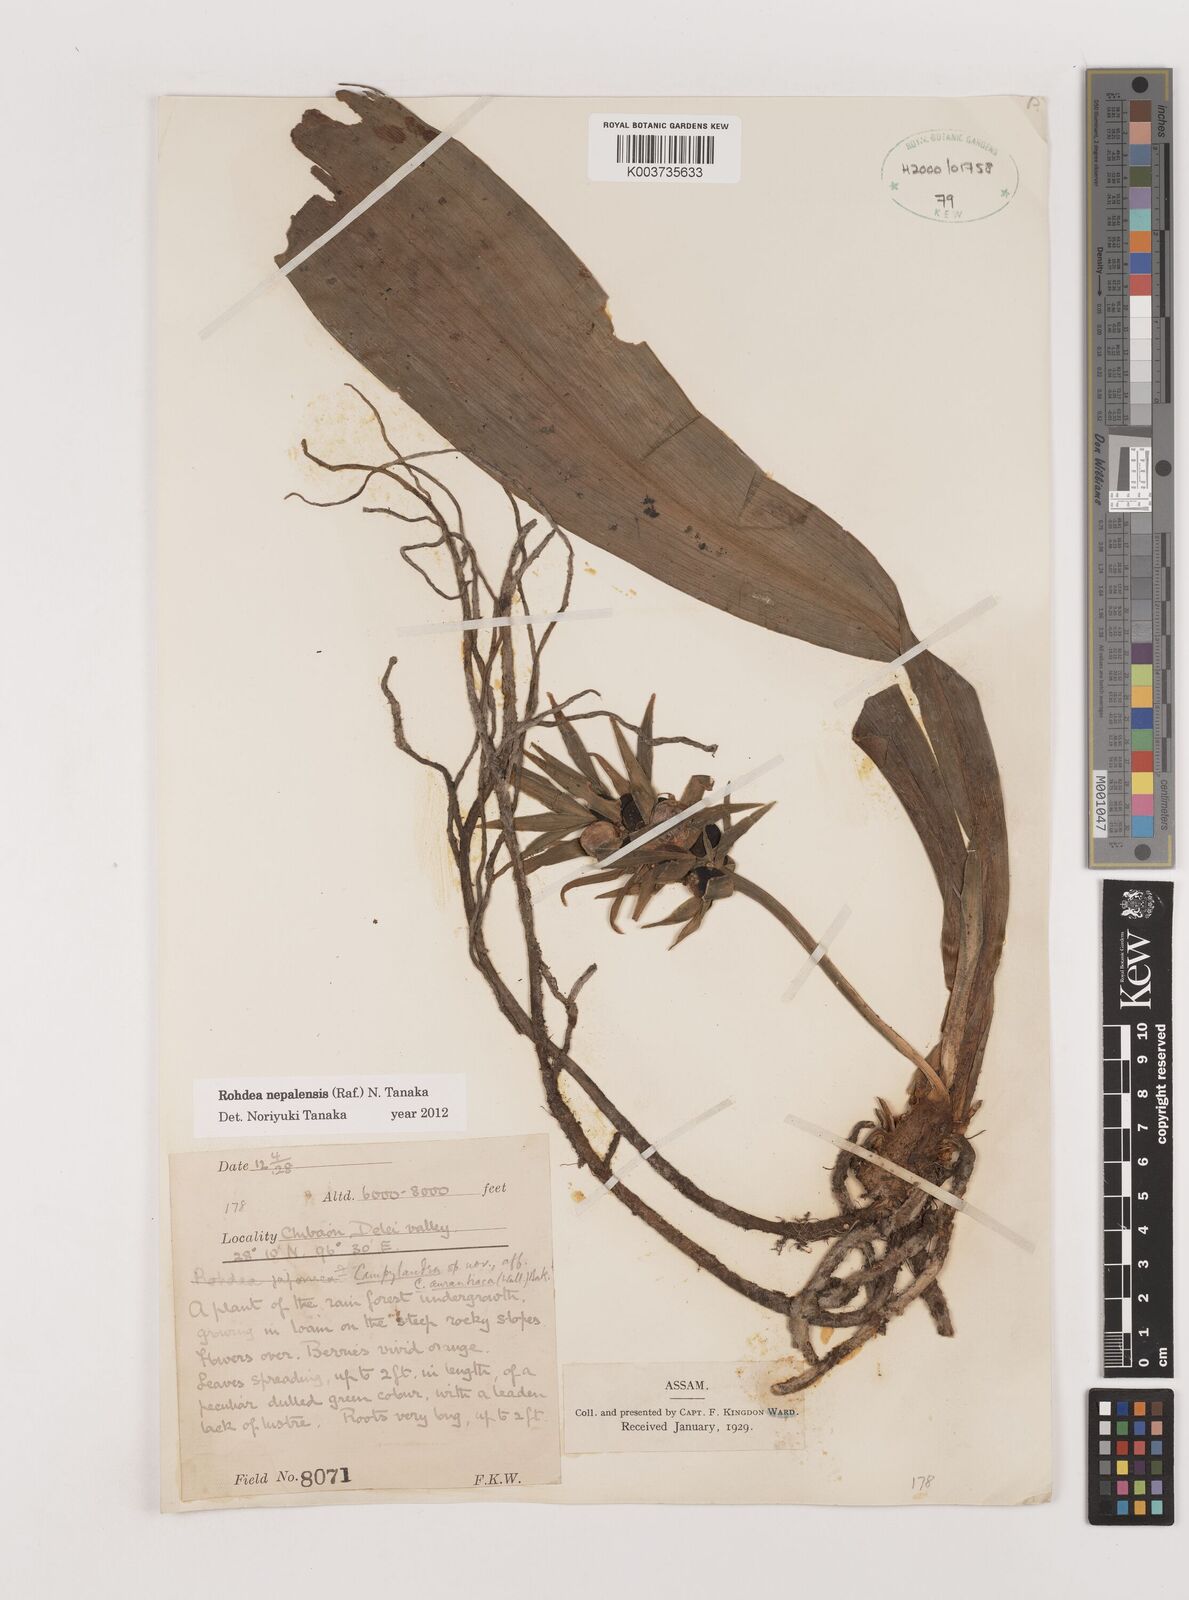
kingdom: Plantae
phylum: Tracheophyta
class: Liliopsida
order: Asparagales
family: Asparagaceae
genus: Rohdea
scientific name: Rohdea nepalensis
